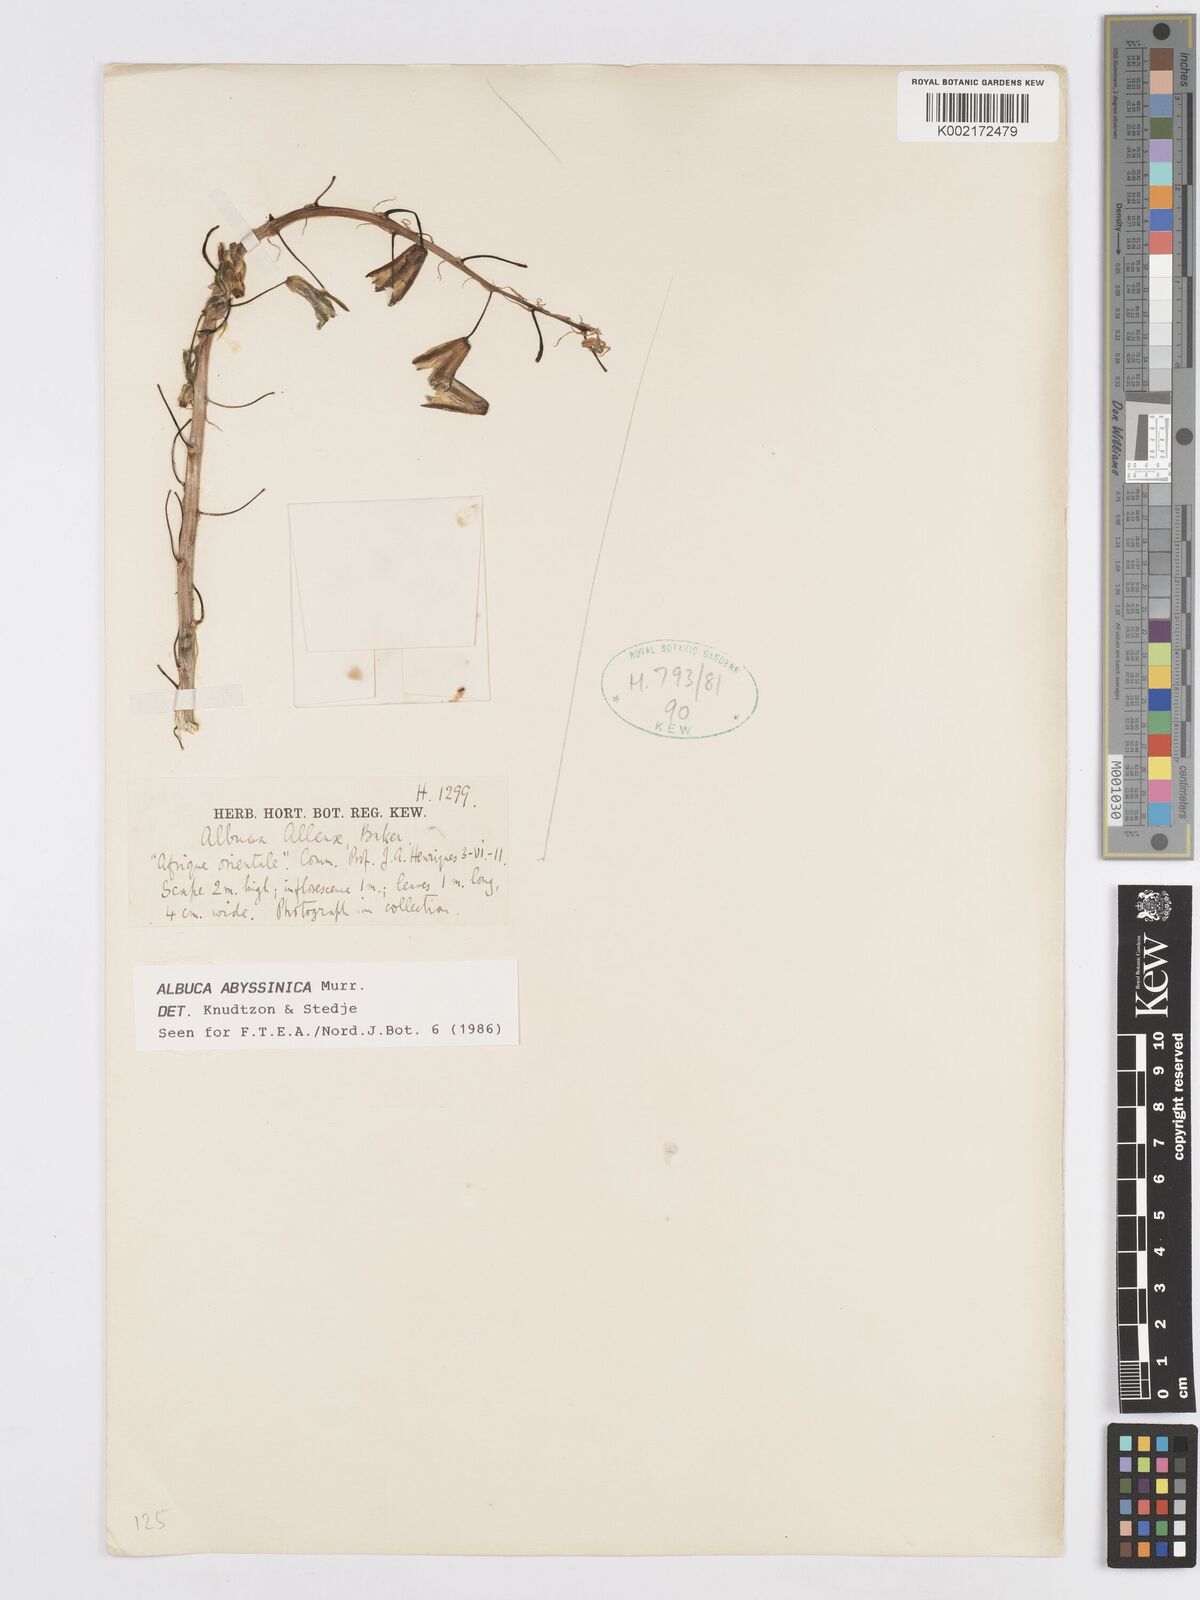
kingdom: Plantae
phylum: Tracheophyta
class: Liliopsida
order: Asparagales
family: Asparagaceae
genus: Albuca
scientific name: Albuca abyssinica
